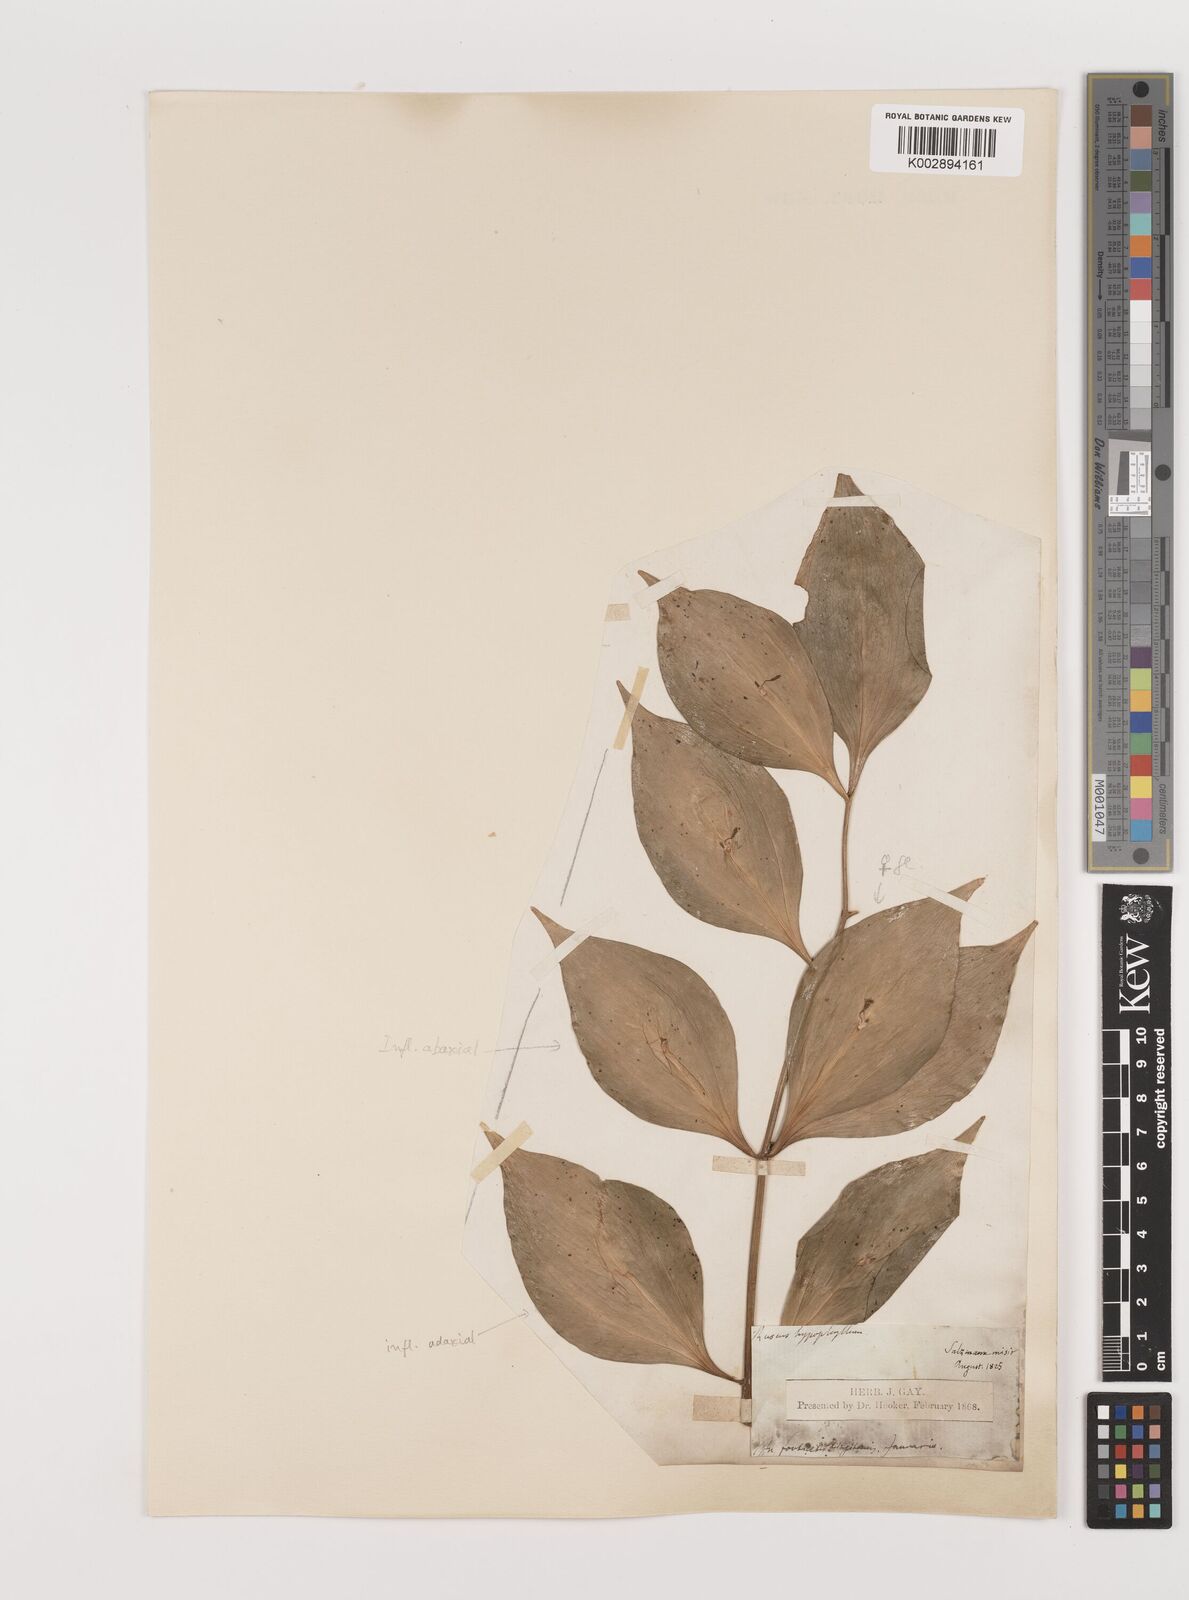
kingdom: Plantae
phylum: Tracheophyta
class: Liliopsida
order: Asparagales
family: Asparagaceae
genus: Ruscus
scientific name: Ruscus hypophyllum
